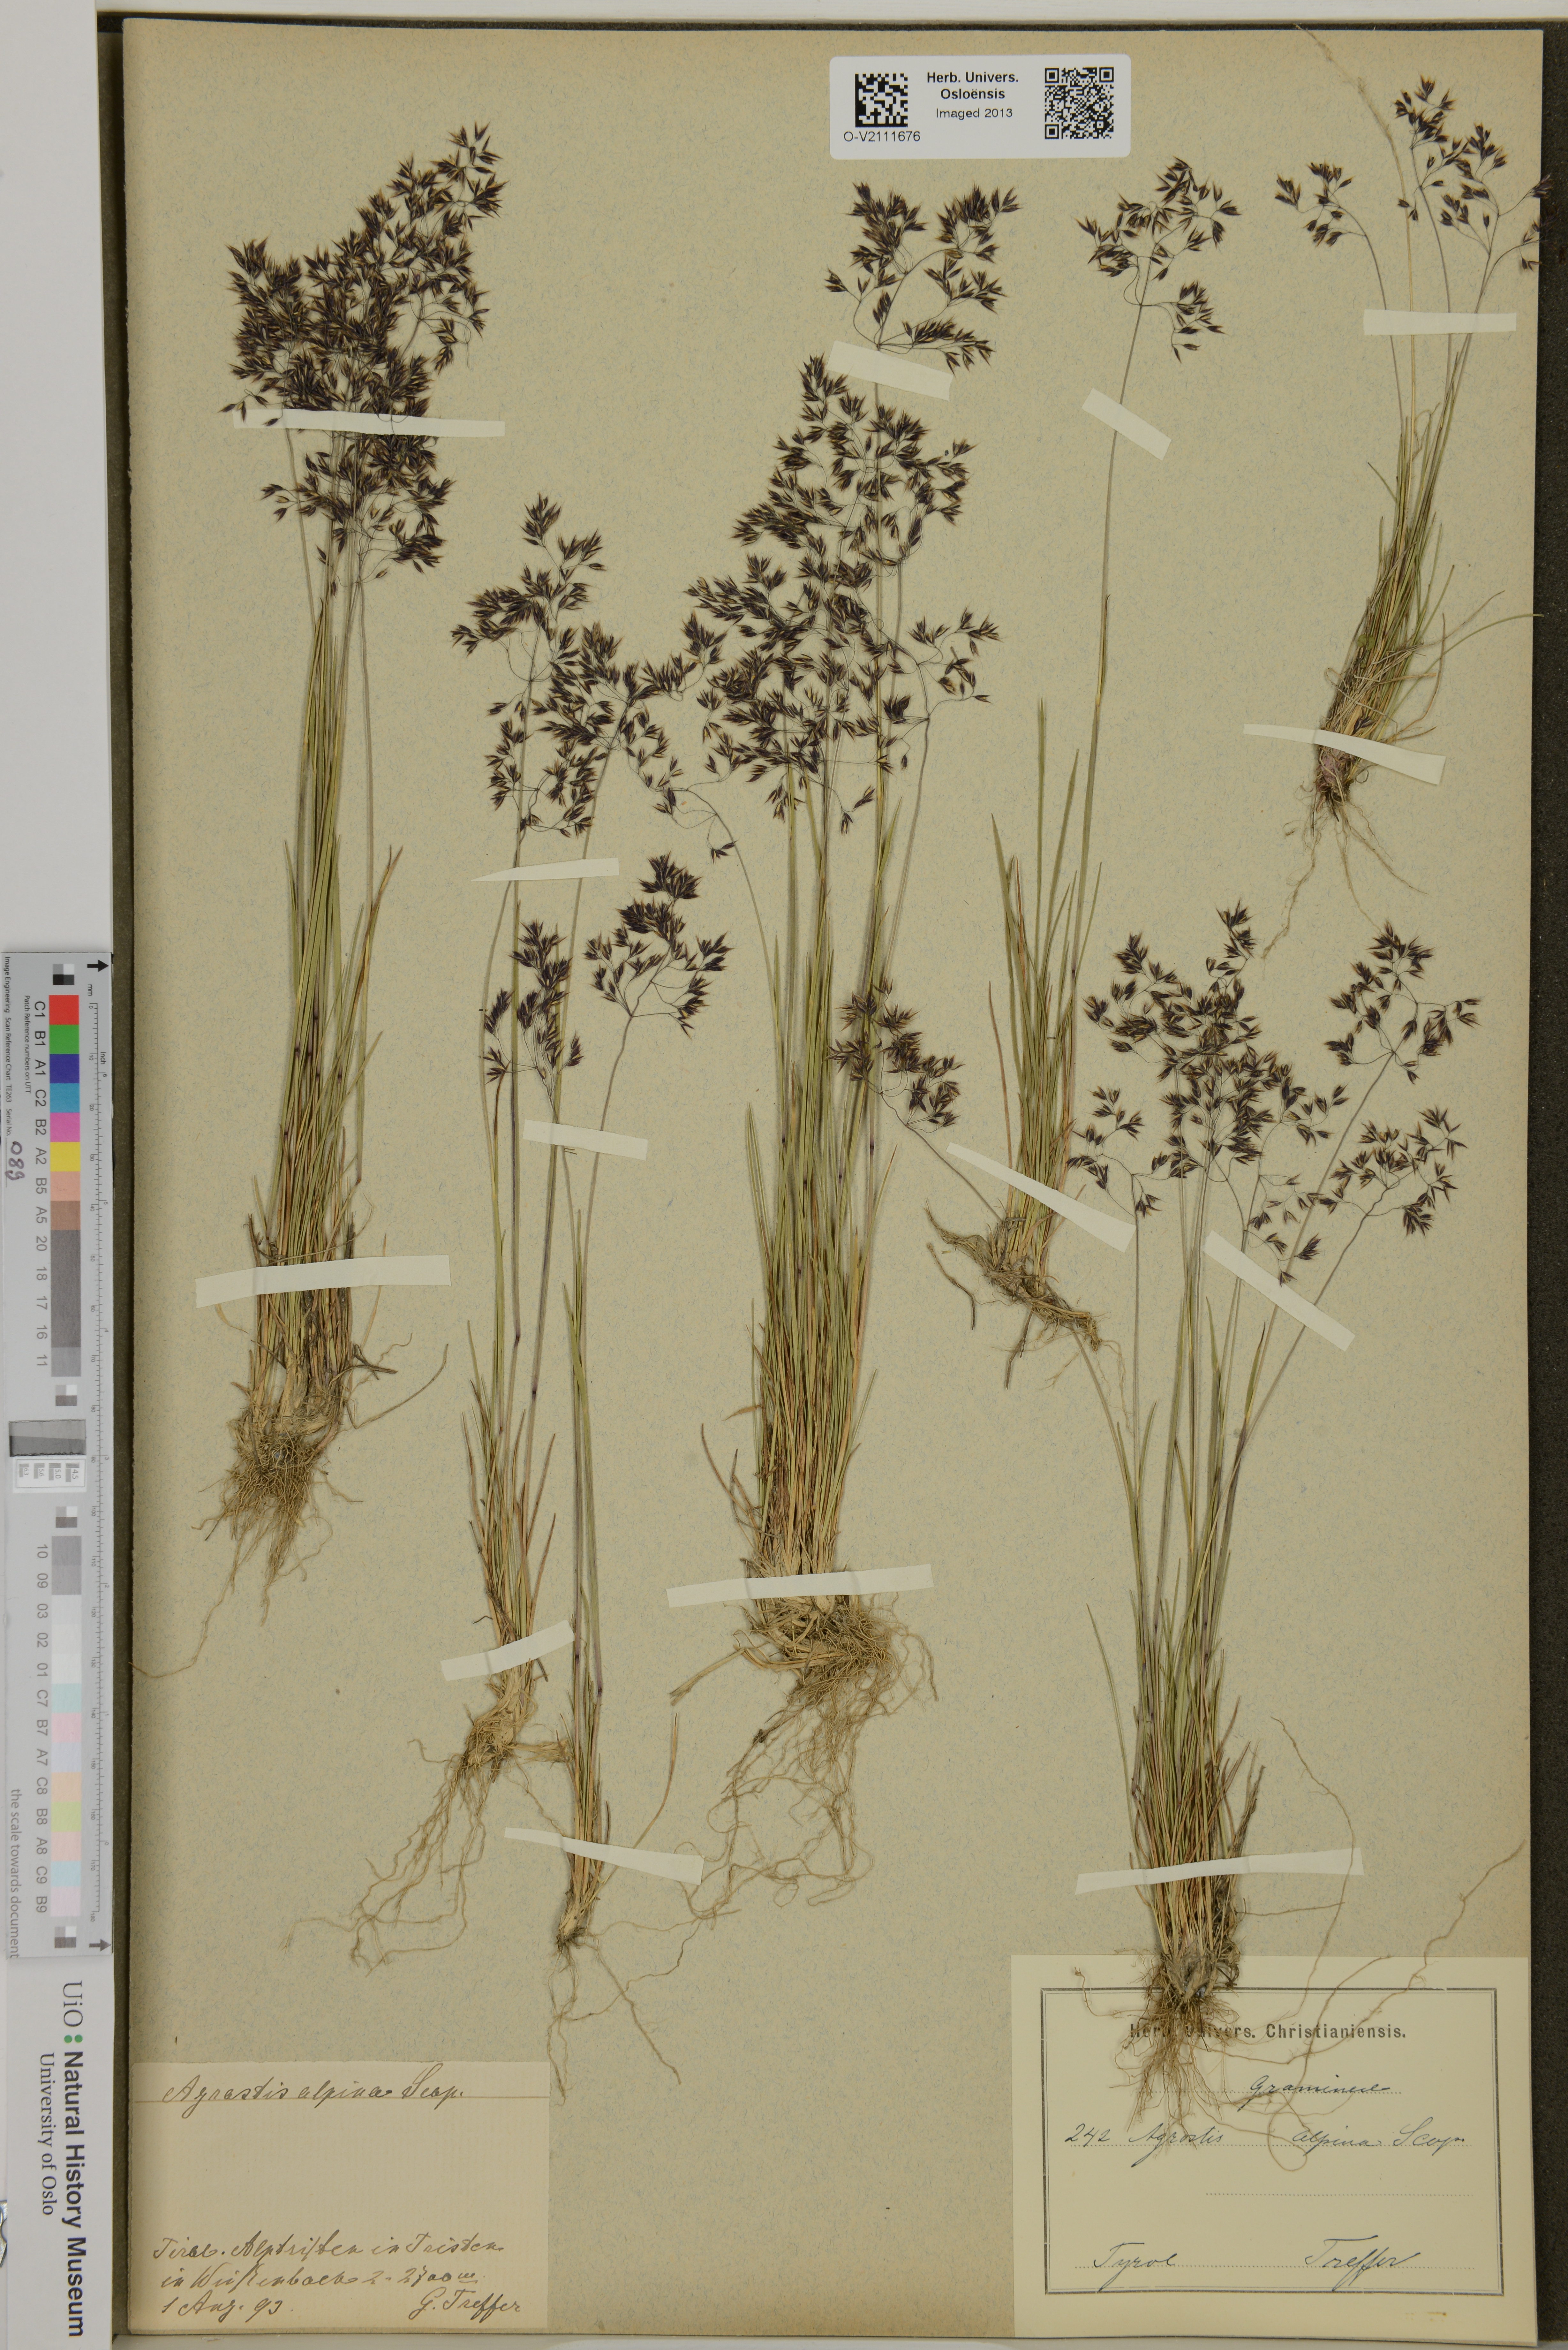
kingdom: Plantae
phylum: Tracheophyta
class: Liliopsida
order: Poales
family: Poaceae
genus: Agrostis
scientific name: Agrostis mertensii
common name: Northern bent
